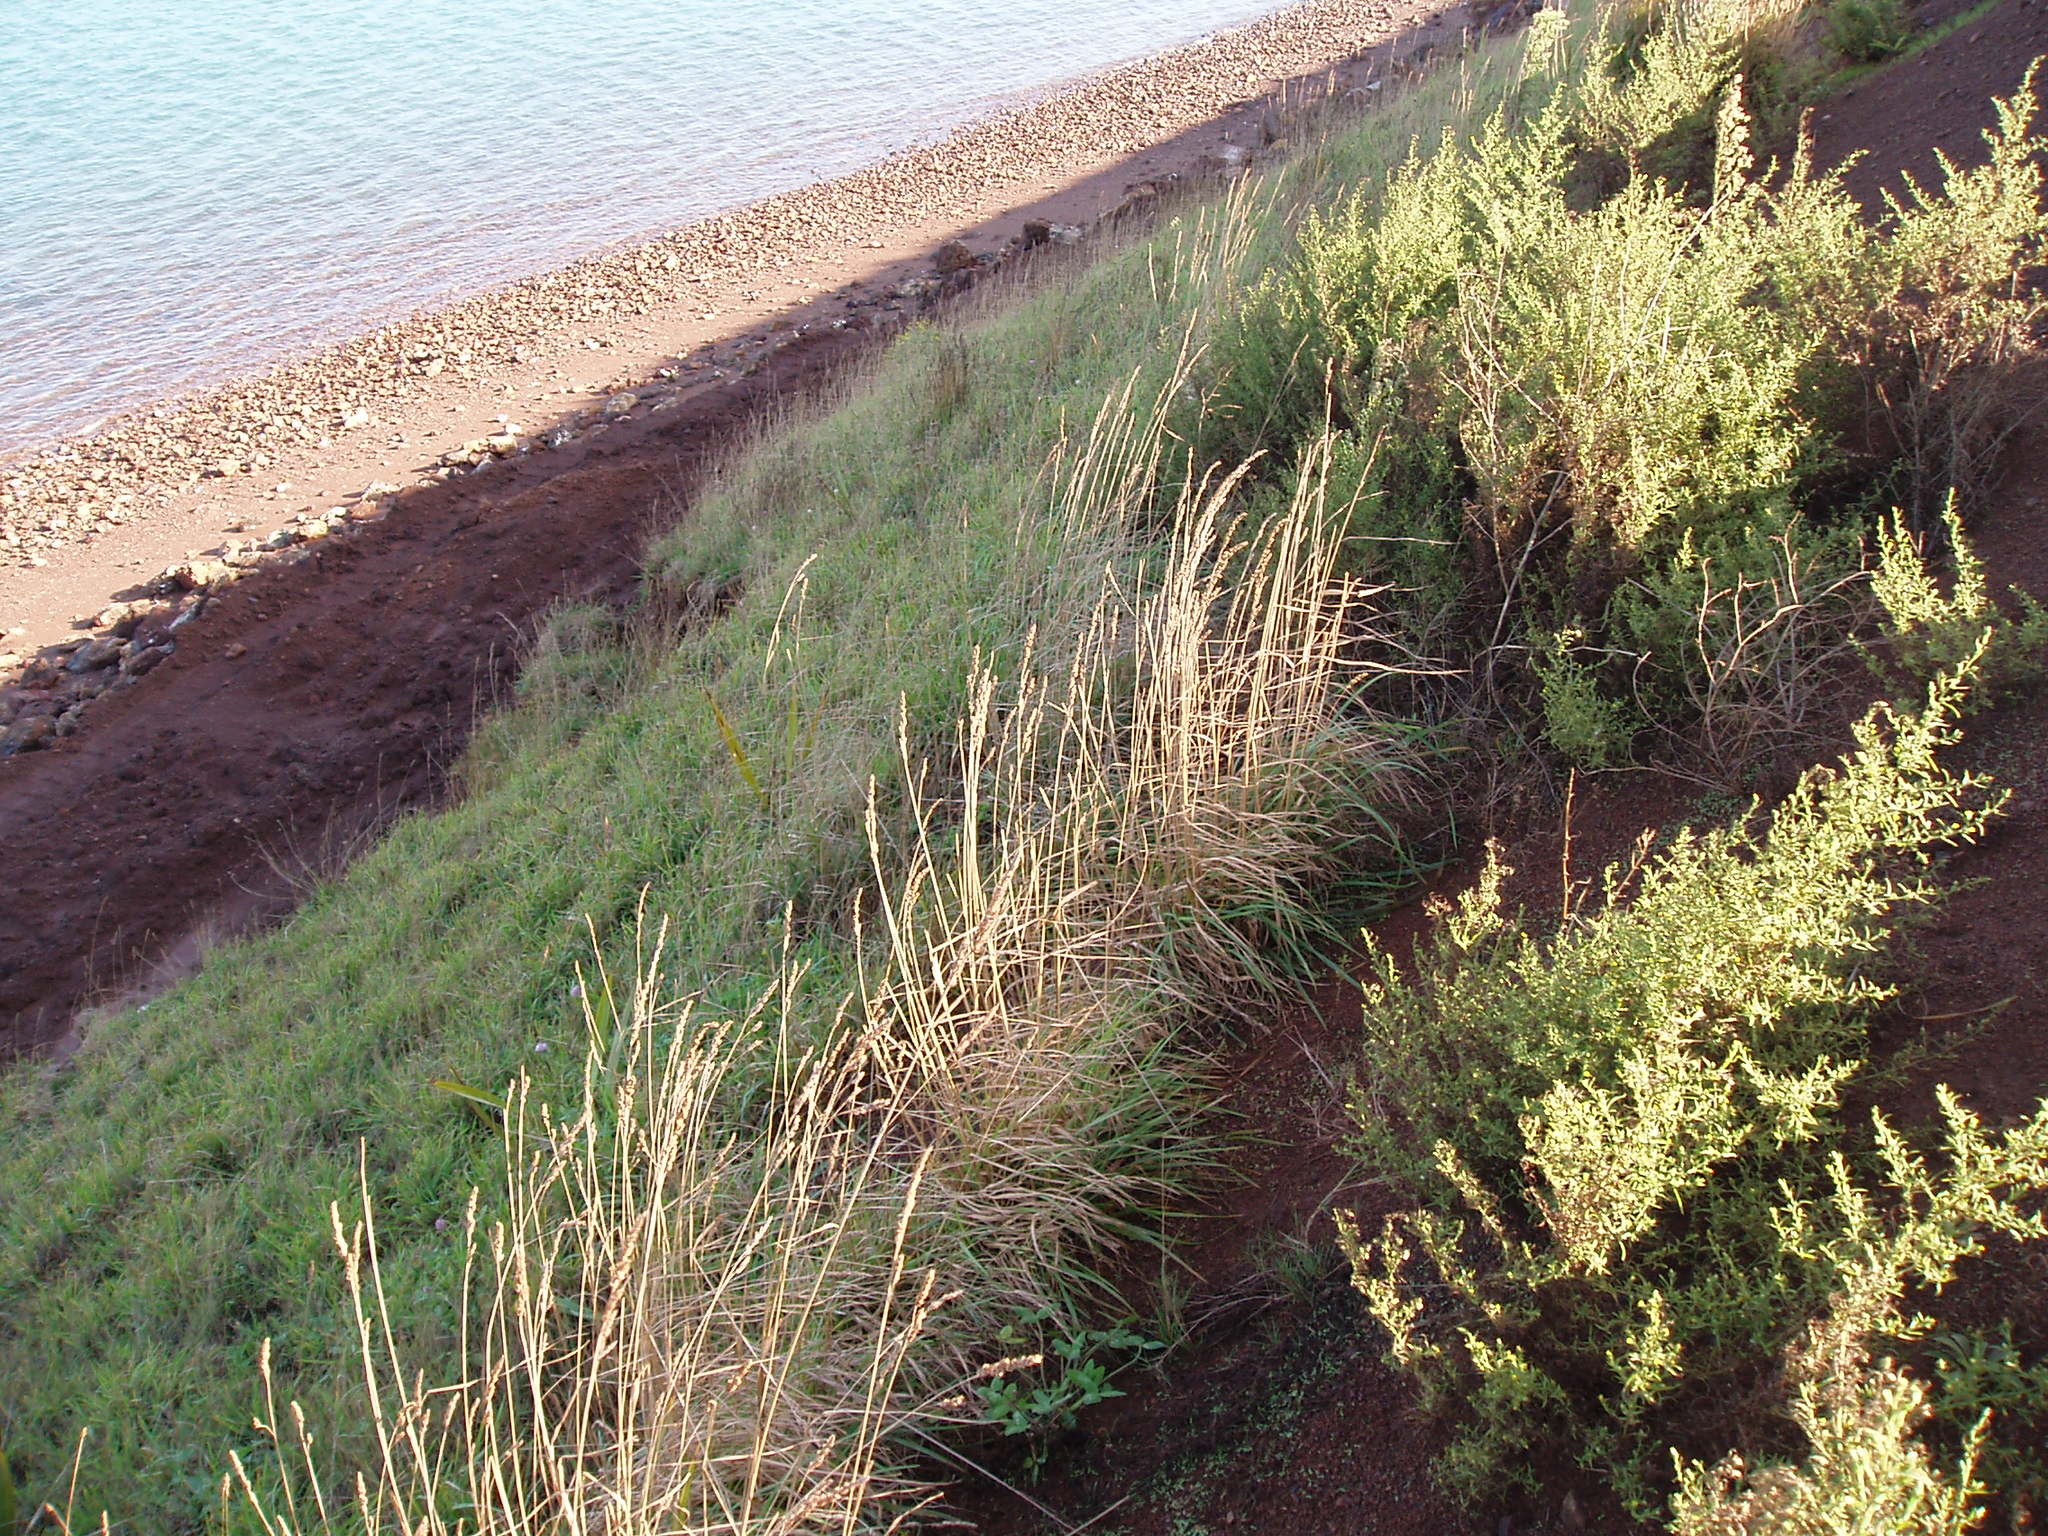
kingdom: Plantae
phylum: Tracheophyta
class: Magnoliopsida
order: Asterales
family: Asteraceae
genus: Dittrichia
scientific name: Dittrichia graveolens
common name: Stinking fleabane
